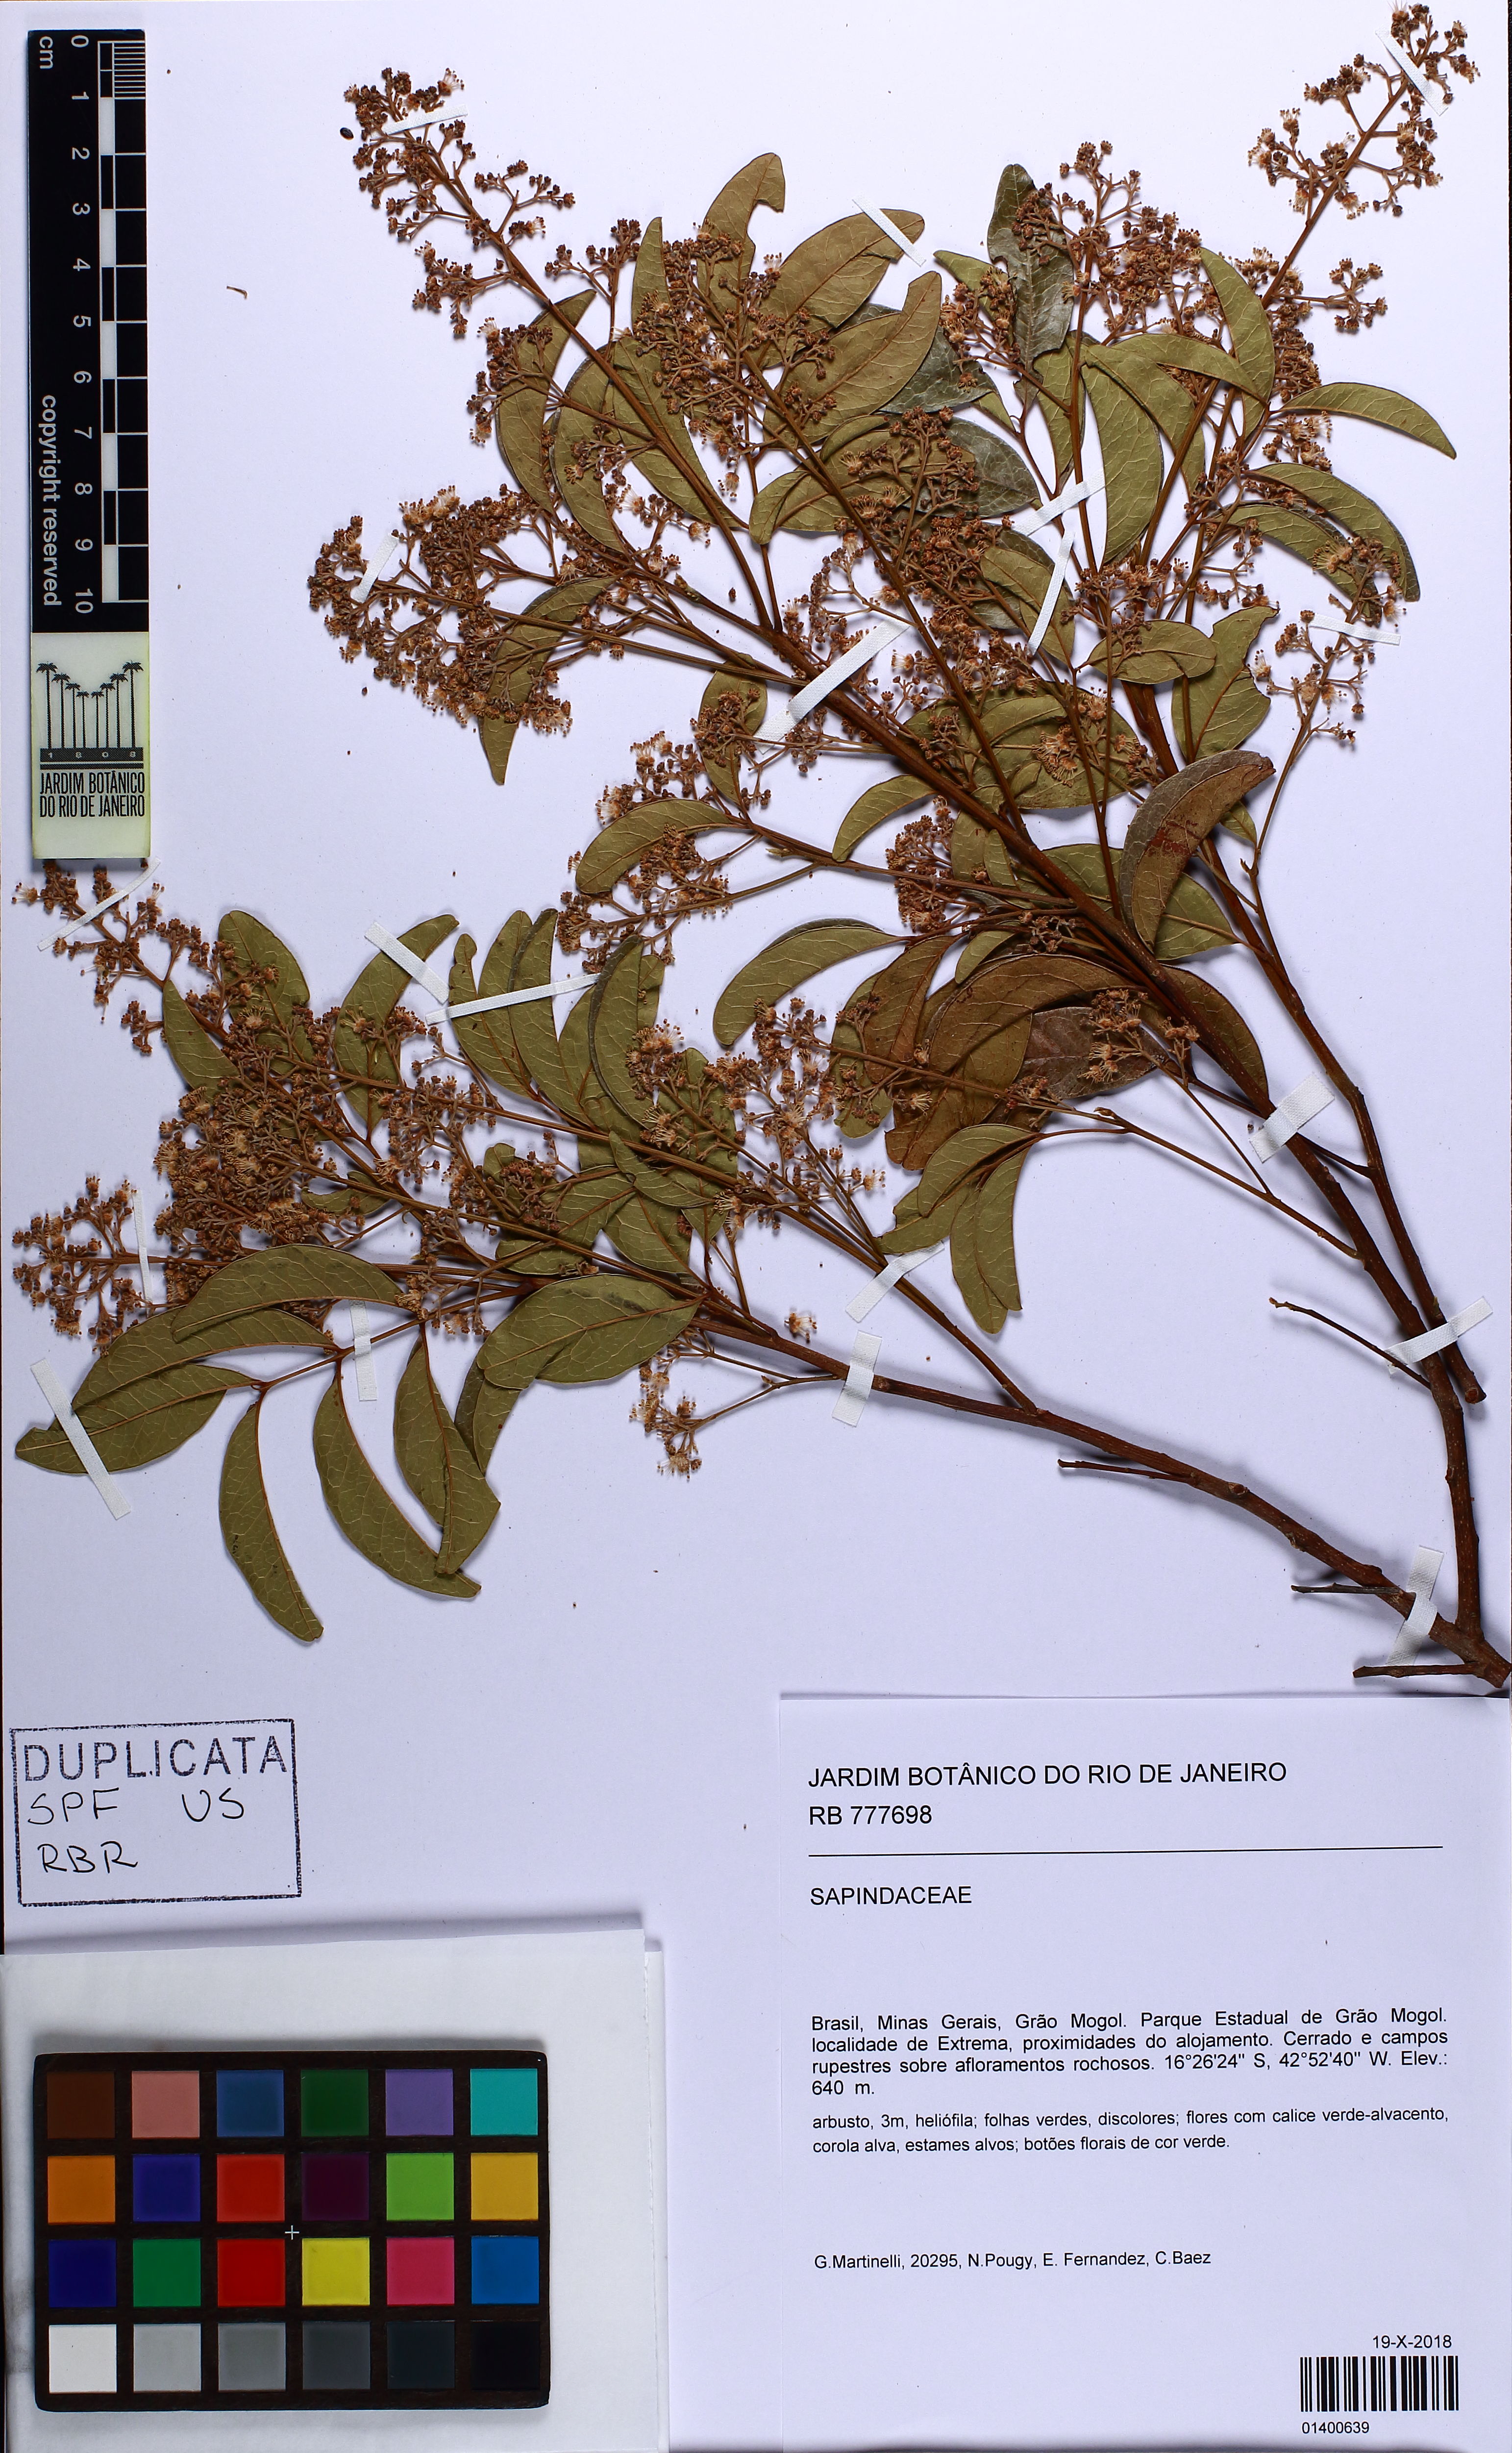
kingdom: Plantae
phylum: Tracheophyta
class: Magnoliopsida
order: Sapindales
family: Sapindaceae
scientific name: Sapindaceae
